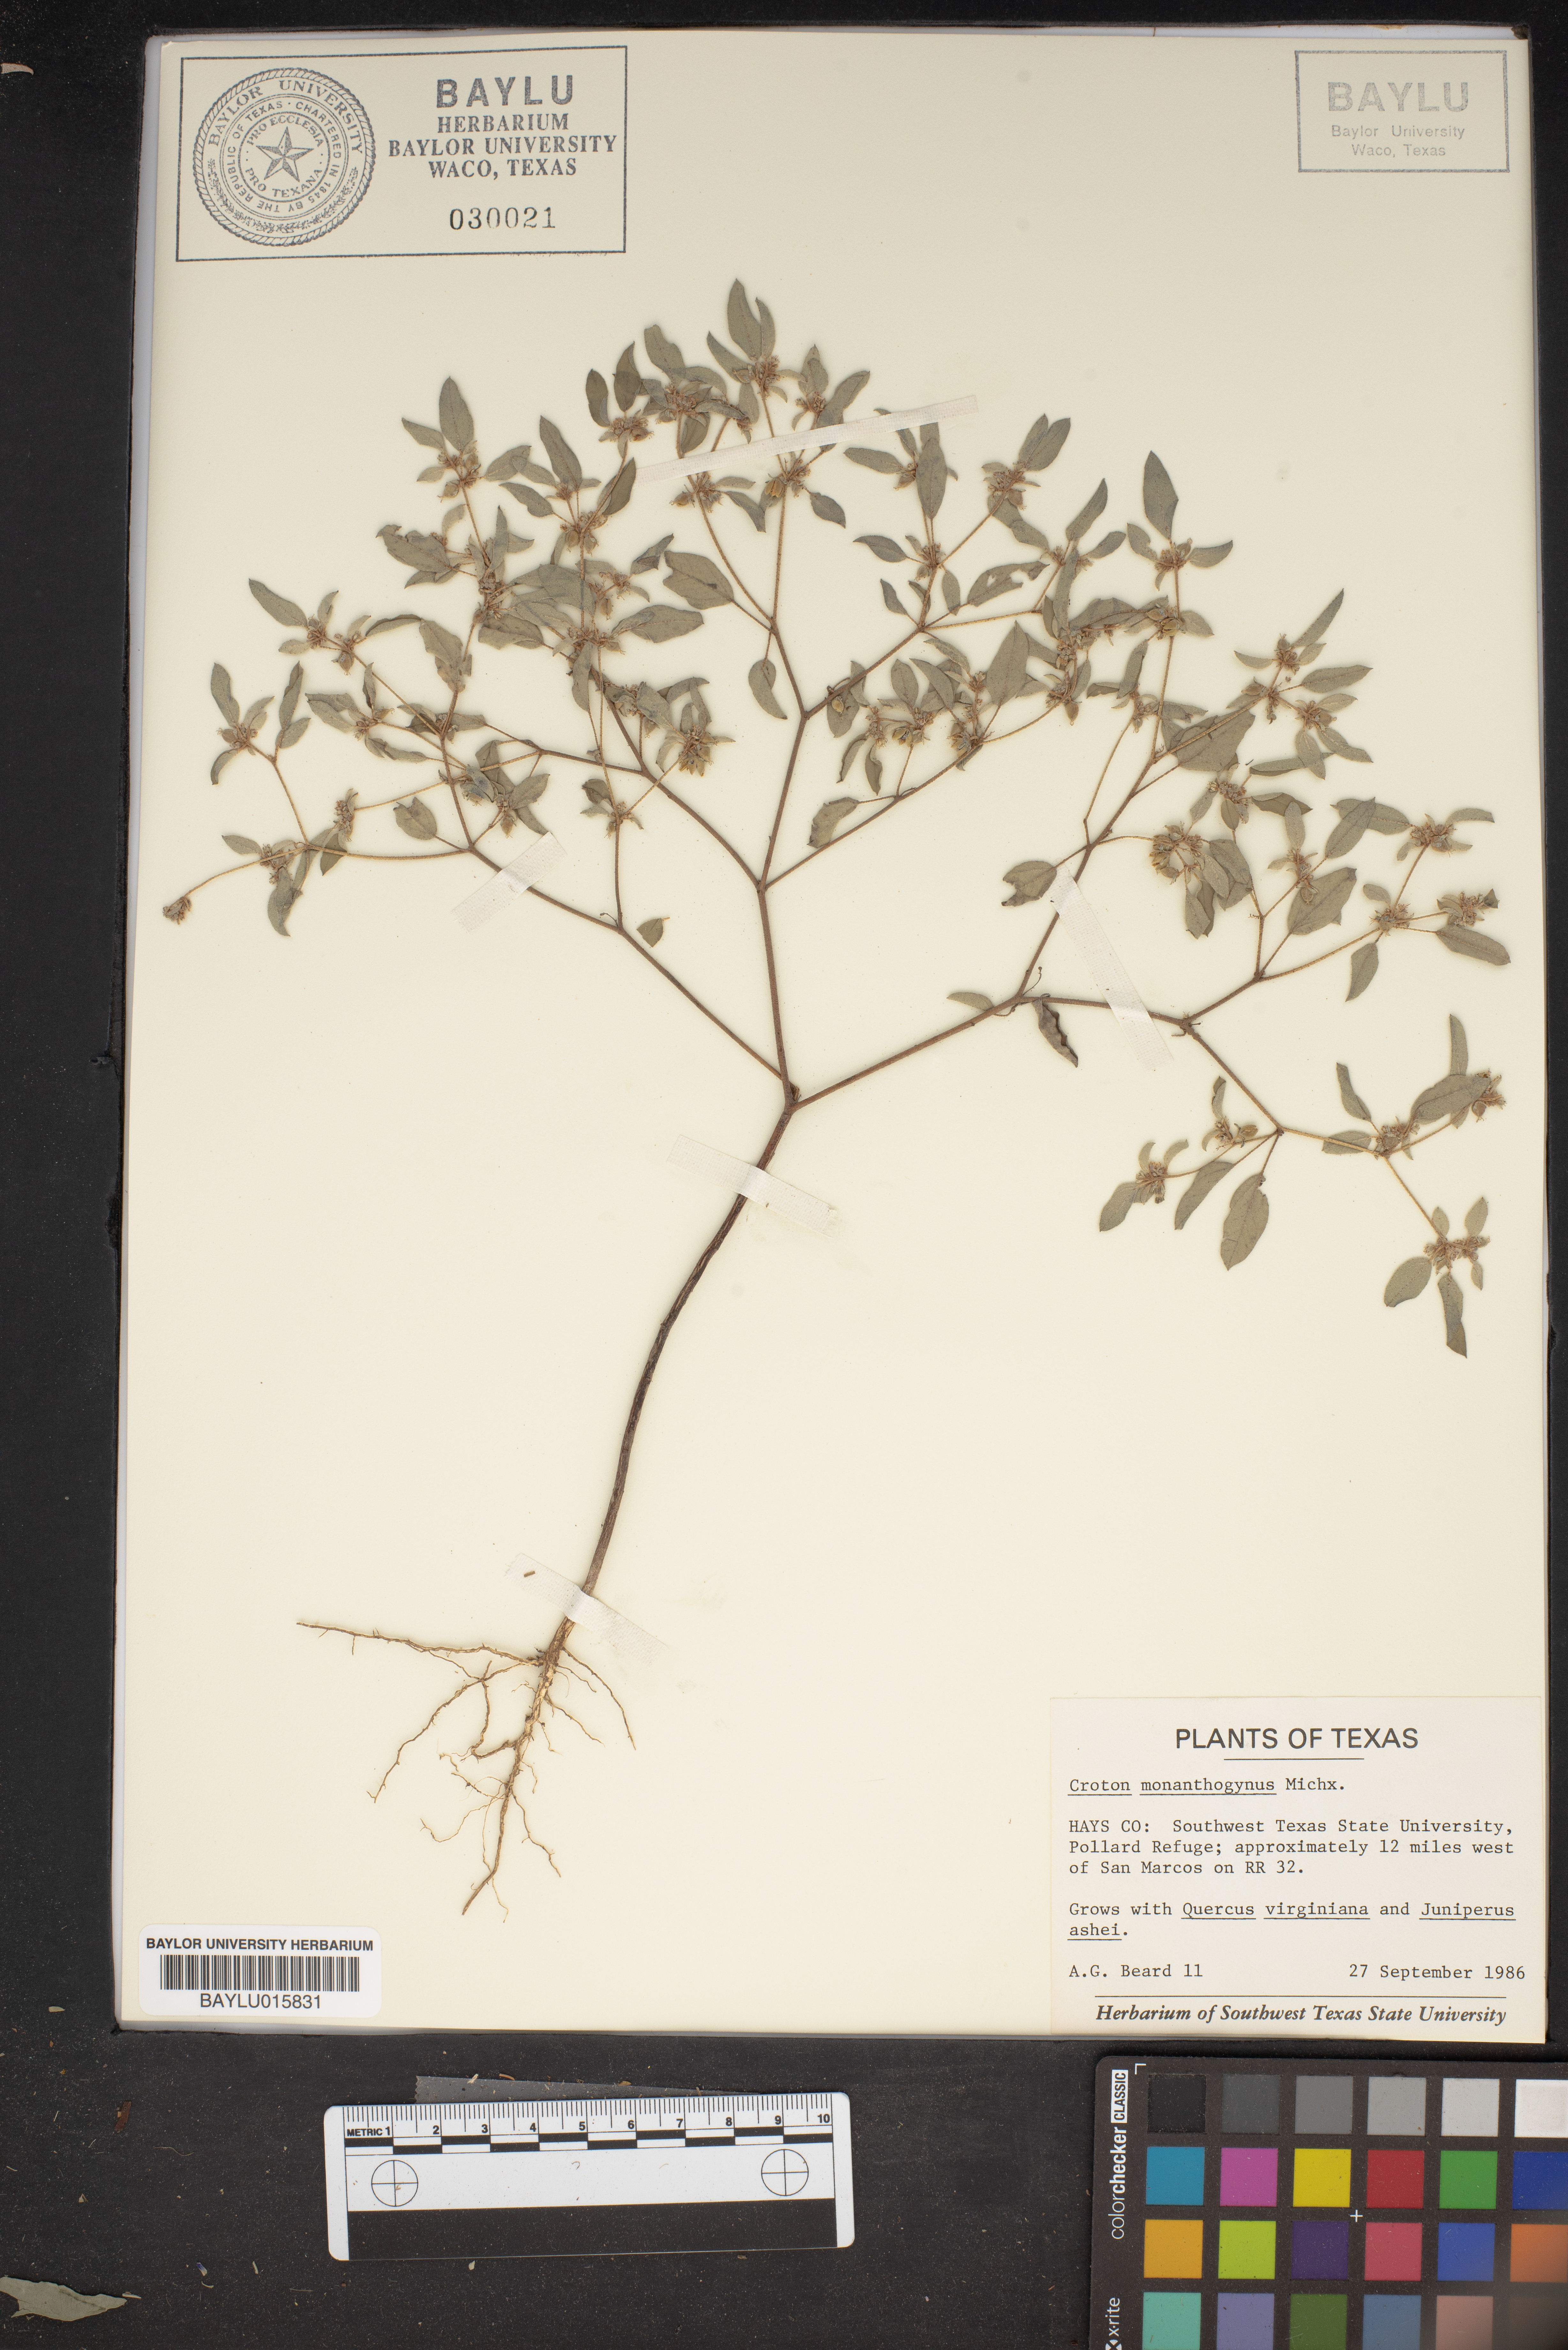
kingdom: Plantae
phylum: Tracheophyta
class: Magnoliopsida
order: Malpighiales
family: Euphorbiaceae
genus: Croton
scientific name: Croton monanthogynus
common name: One-seed croton
